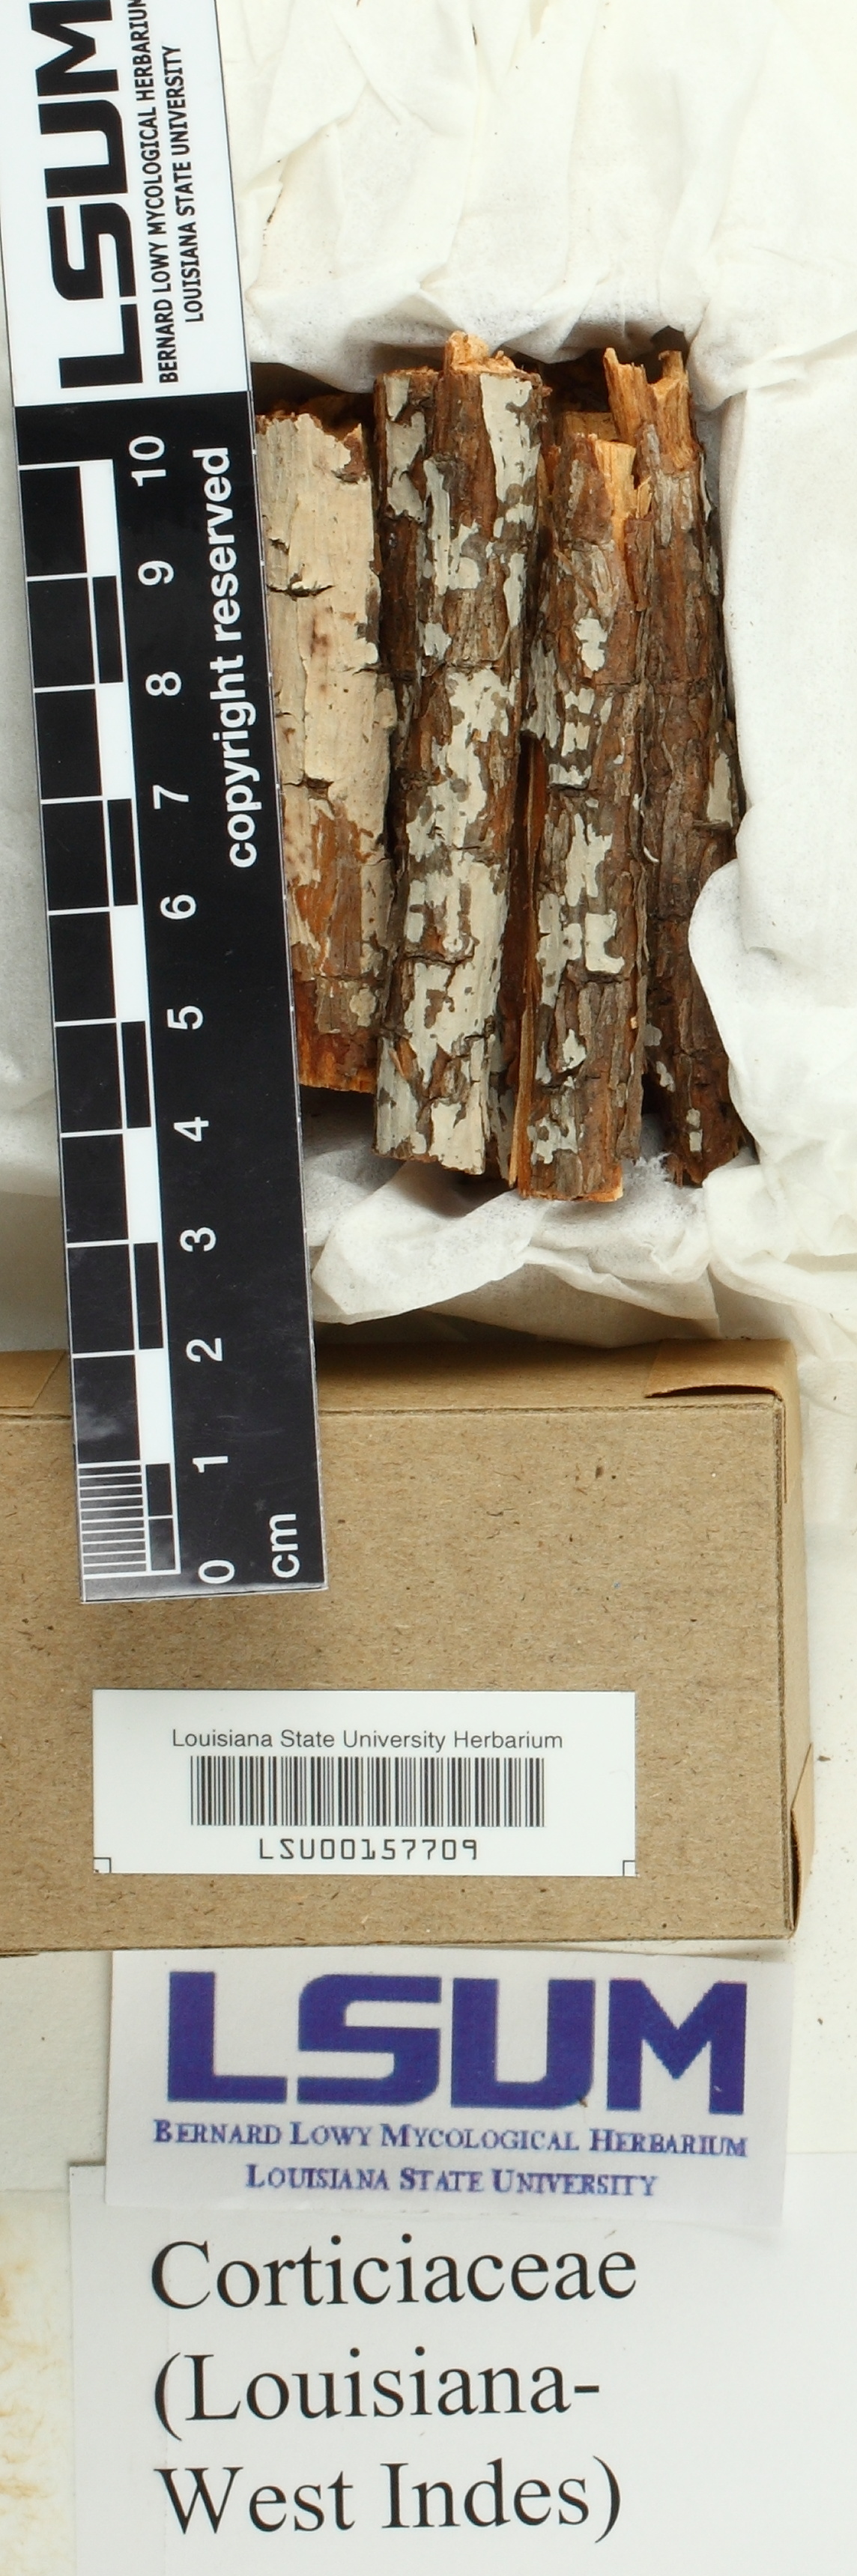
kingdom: Fungi
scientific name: Fungi
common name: Fungi
